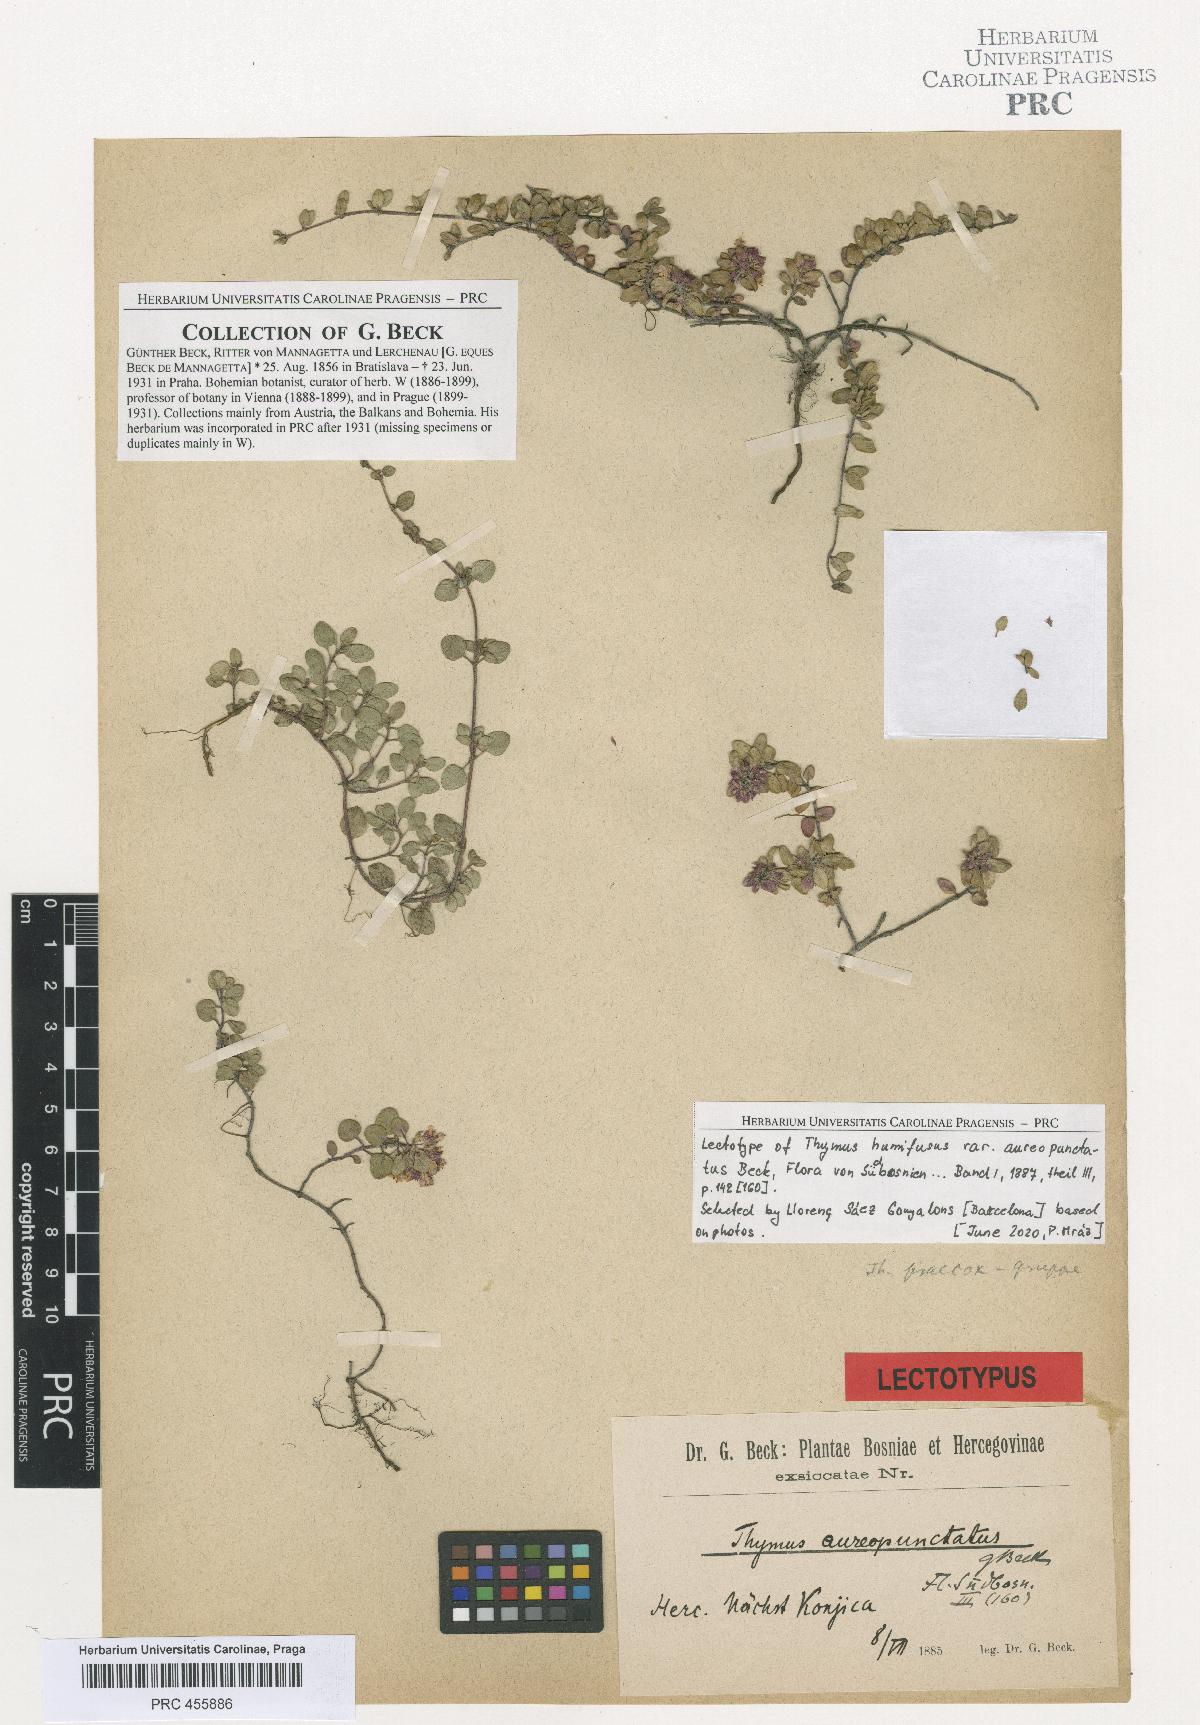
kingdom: Plantae
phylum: Tracheophyta
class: Magnoliopsida
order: Lamiales
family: Lamiaceae
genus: Thymus
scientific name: Thymus richardii
